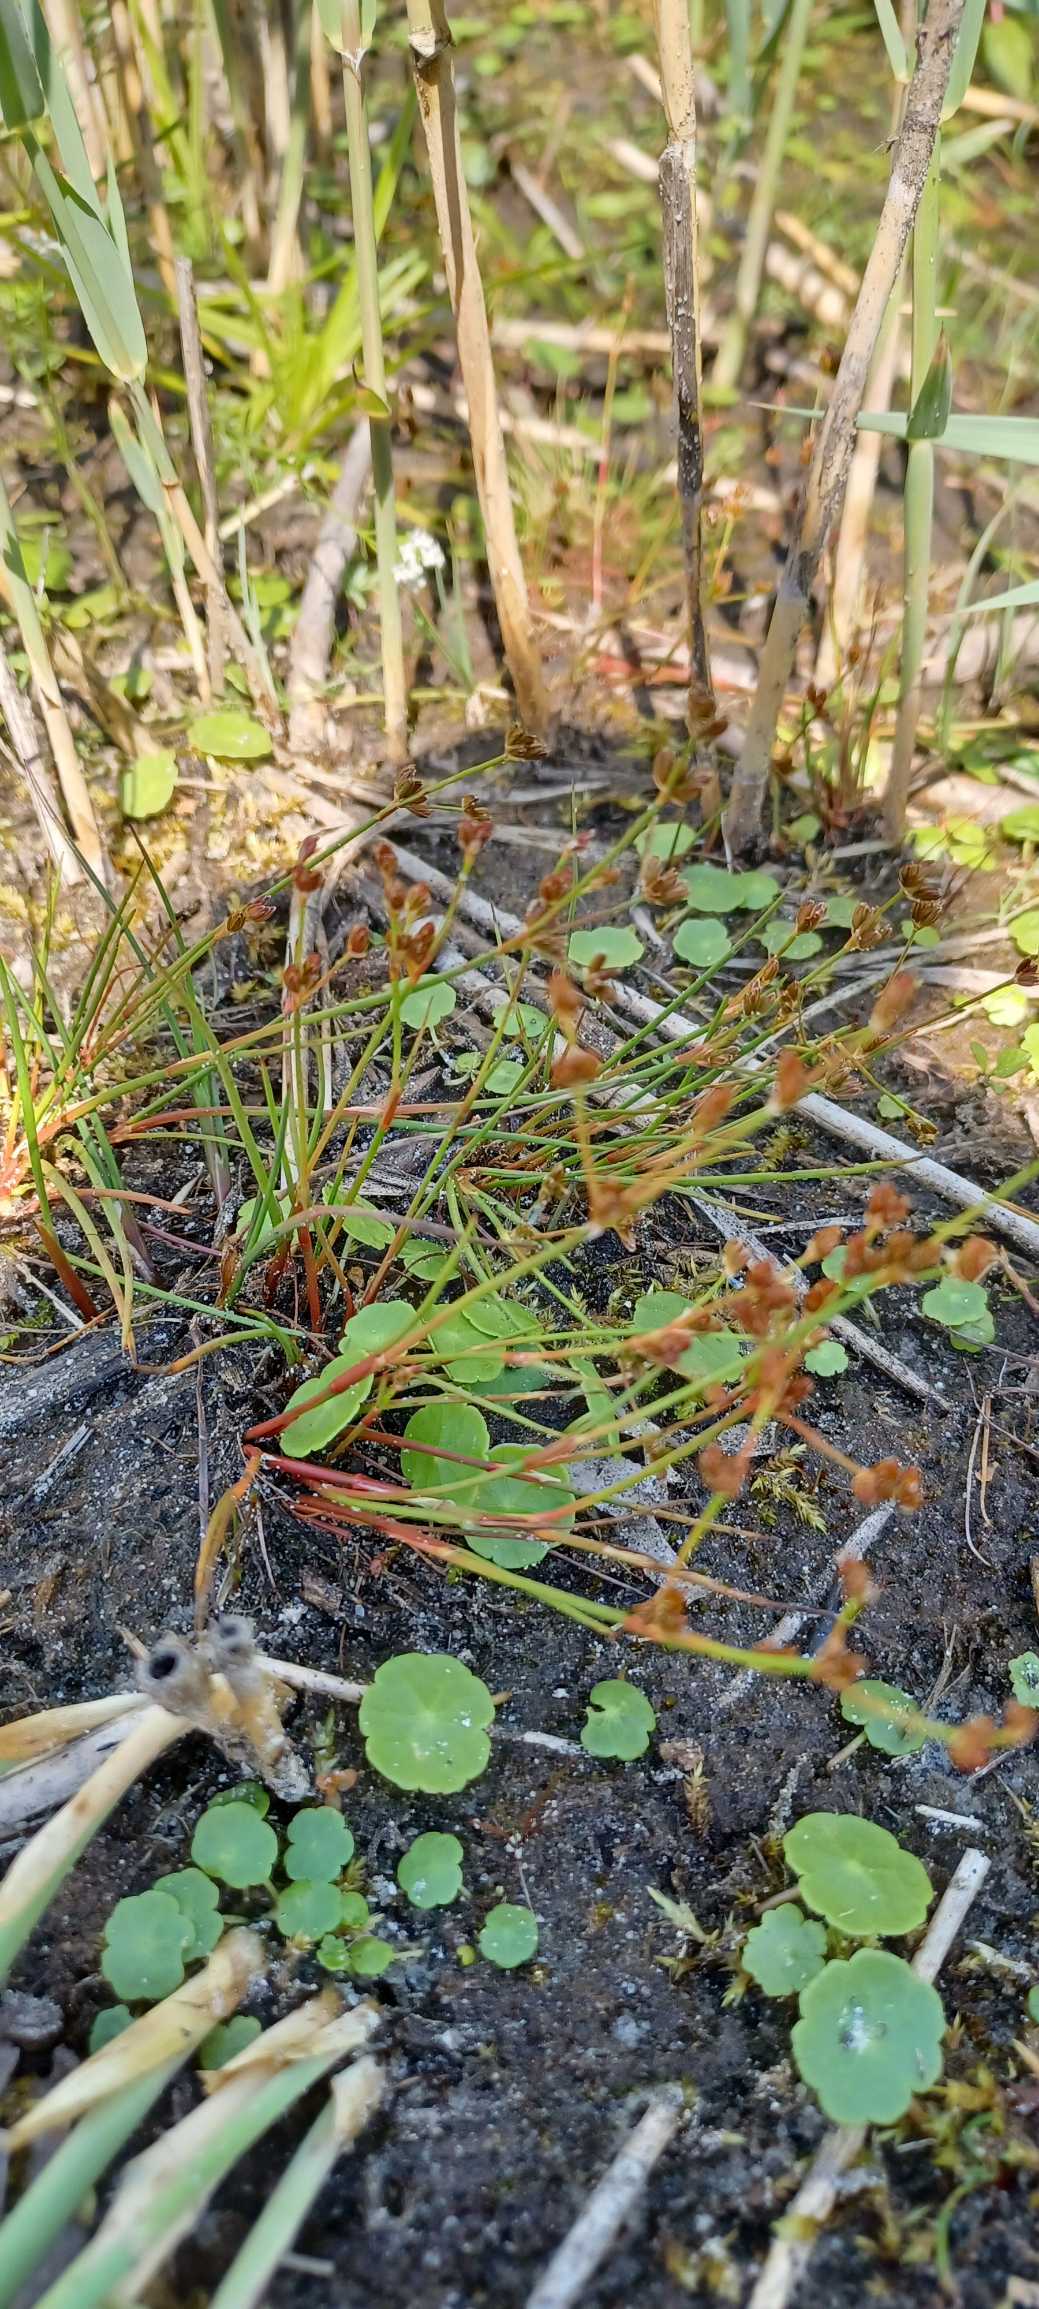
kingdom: Plantae
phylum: Tracheophyta
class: Liliopsida
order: Poales
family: Juncaceae
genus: Juncus
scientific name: Juncus bulbosus
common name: Liden siv
